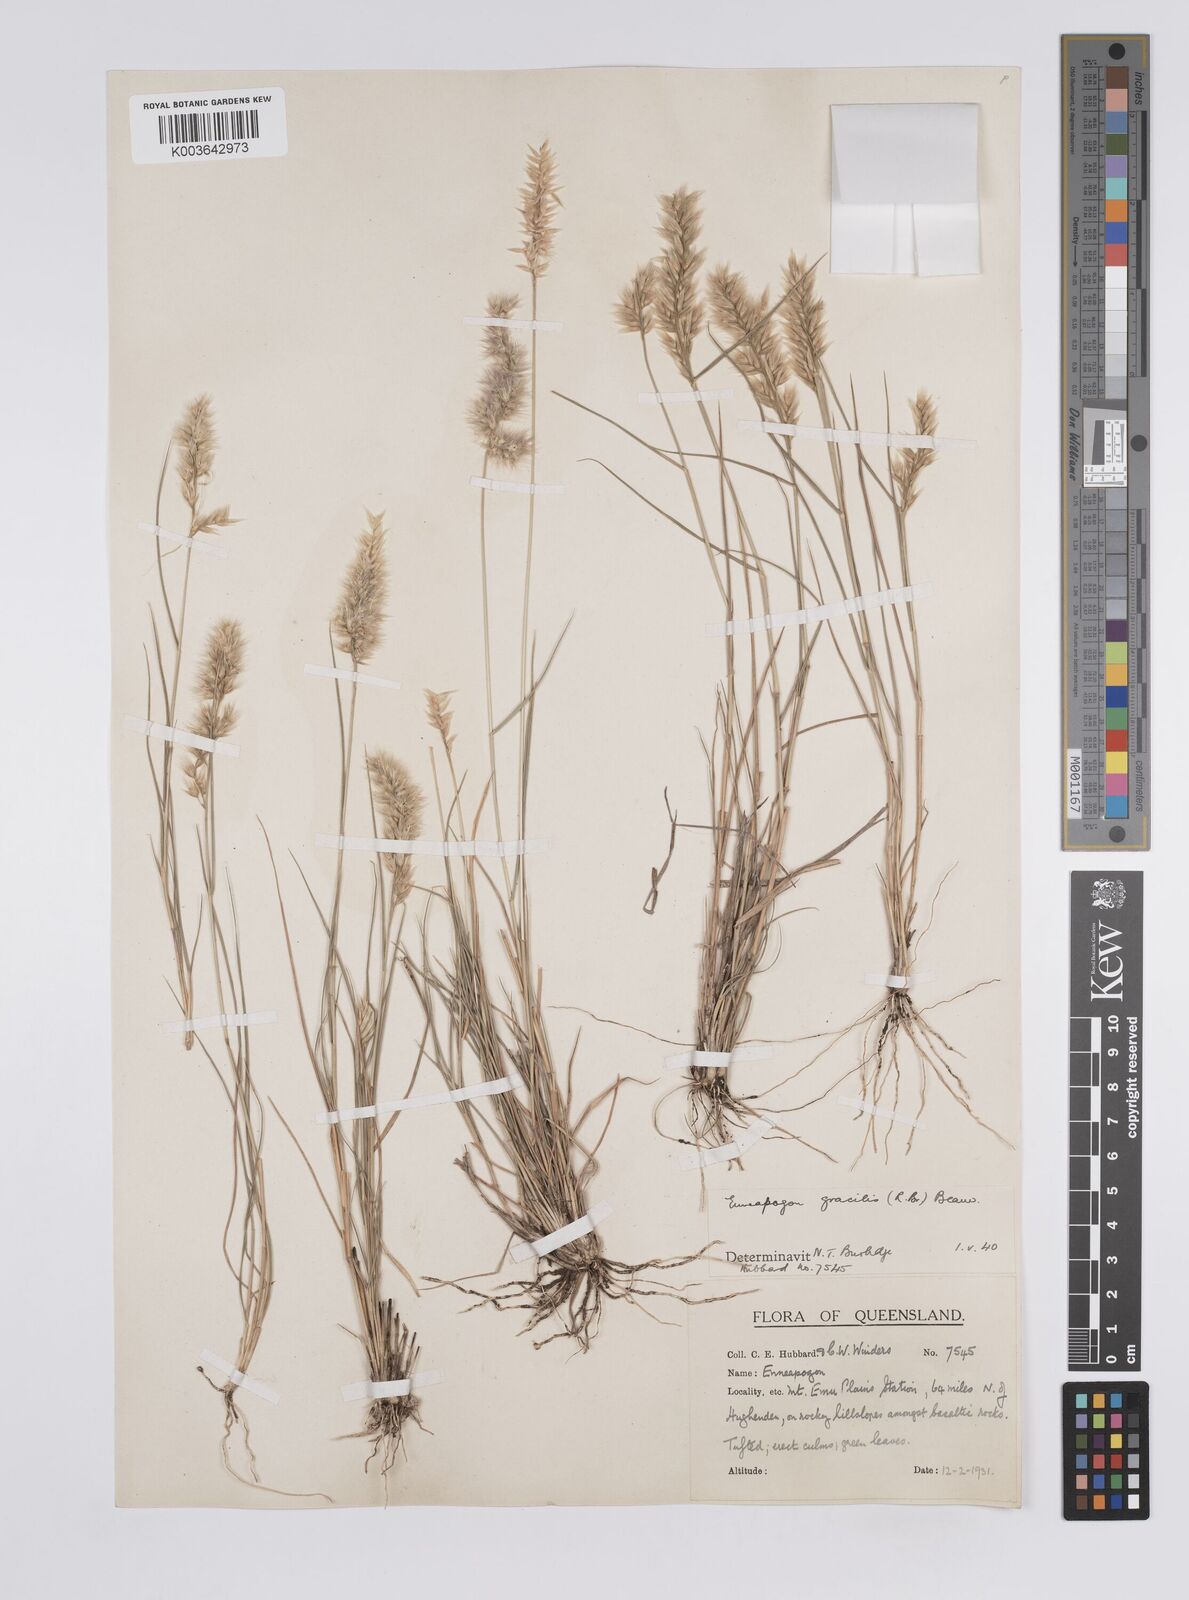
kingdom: Plantae
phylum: Tracheophyta
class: Liliopsida
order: Poales
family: Poaceae
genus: Enneapogon
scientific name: Enneapogon gracilis
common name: Slender bottle-washers
